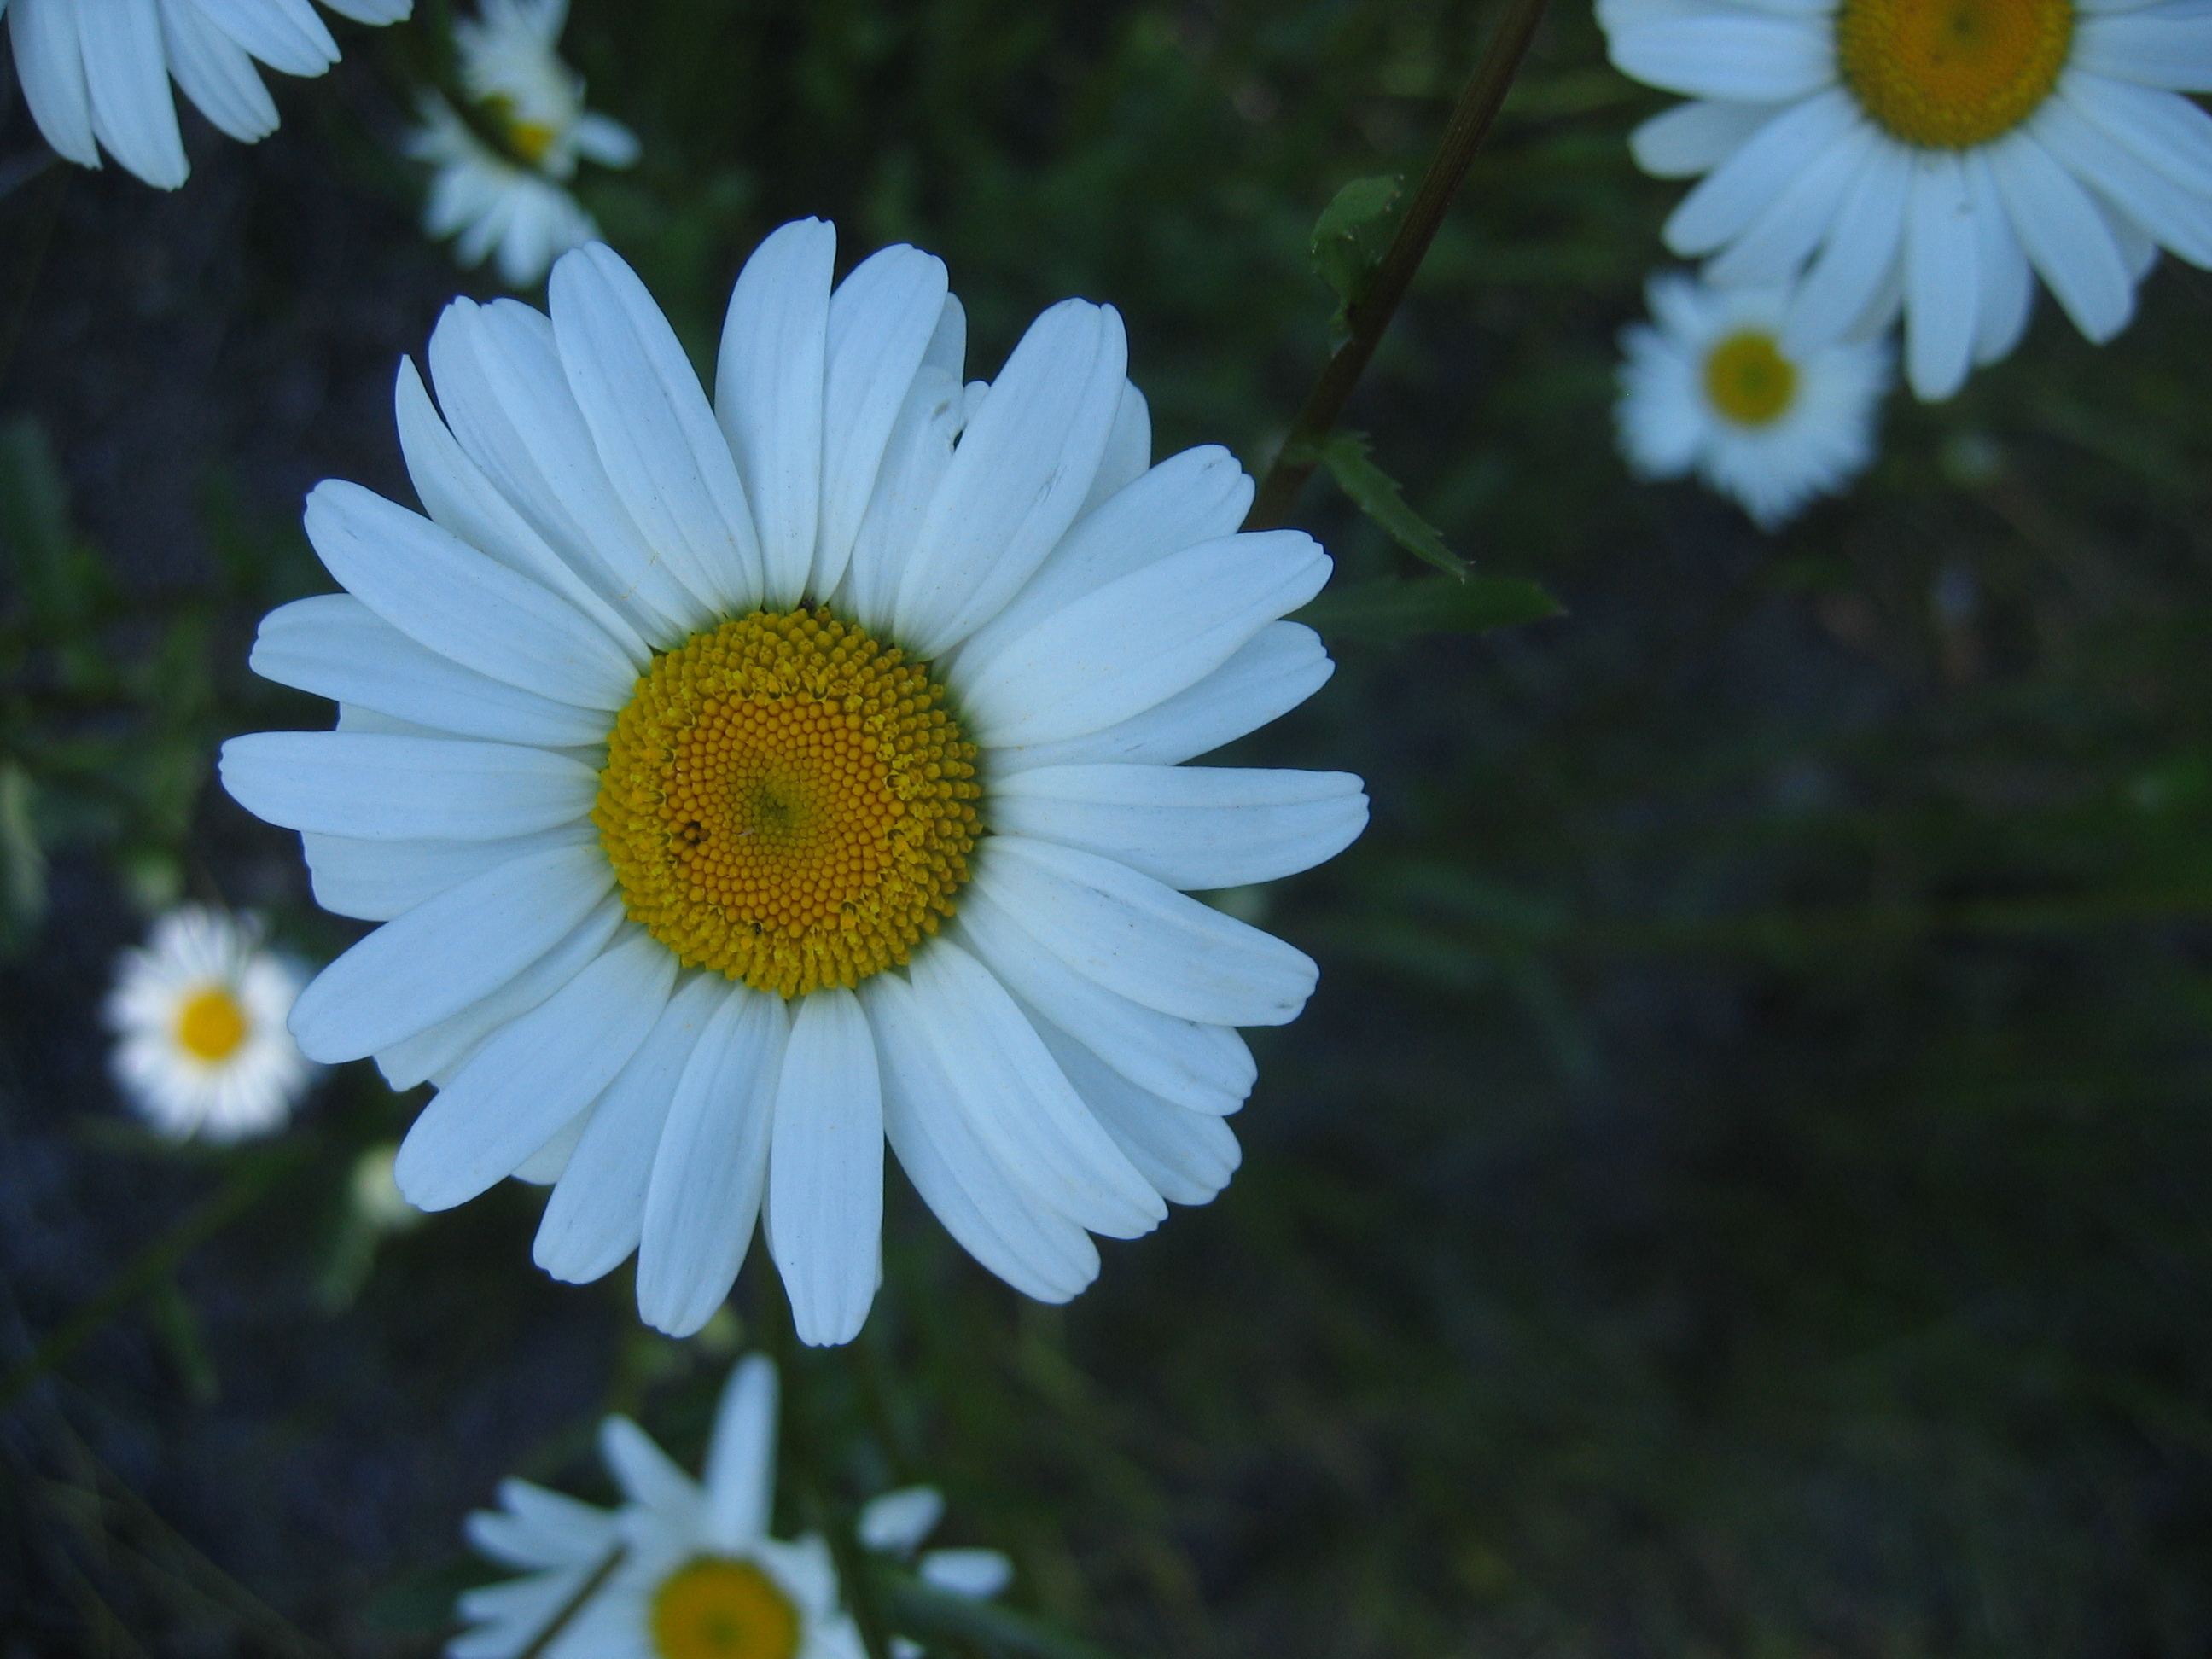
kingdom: Plantae
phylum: Tracheophyta
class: Magnoliopsida
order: Asterales
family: Asteraceae
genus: Leucanthemum
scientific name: Leucanthemum vulgare
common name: Oxeye daisy
